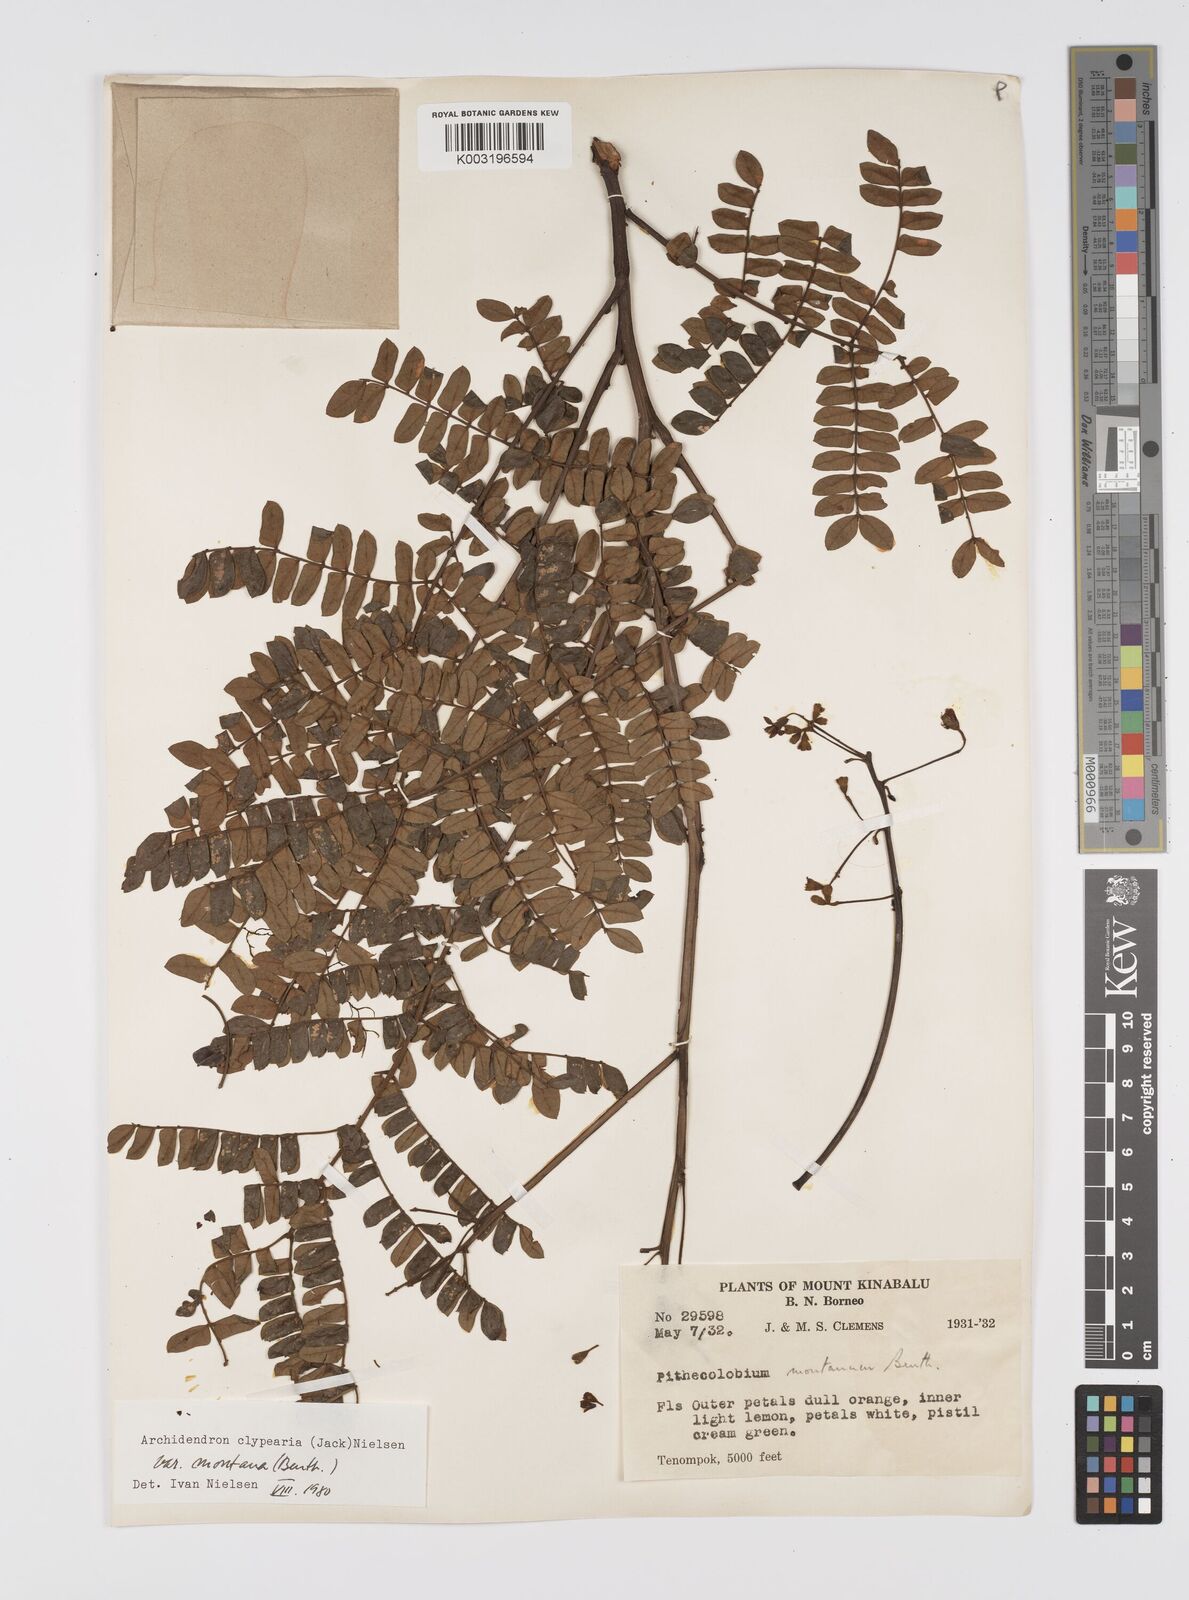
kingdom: Plantae
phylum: Tracheophyta
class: Magnoliopsida
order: Fabales
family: Fabaceae
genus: Archidendron
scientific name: Archidendron clypearia
